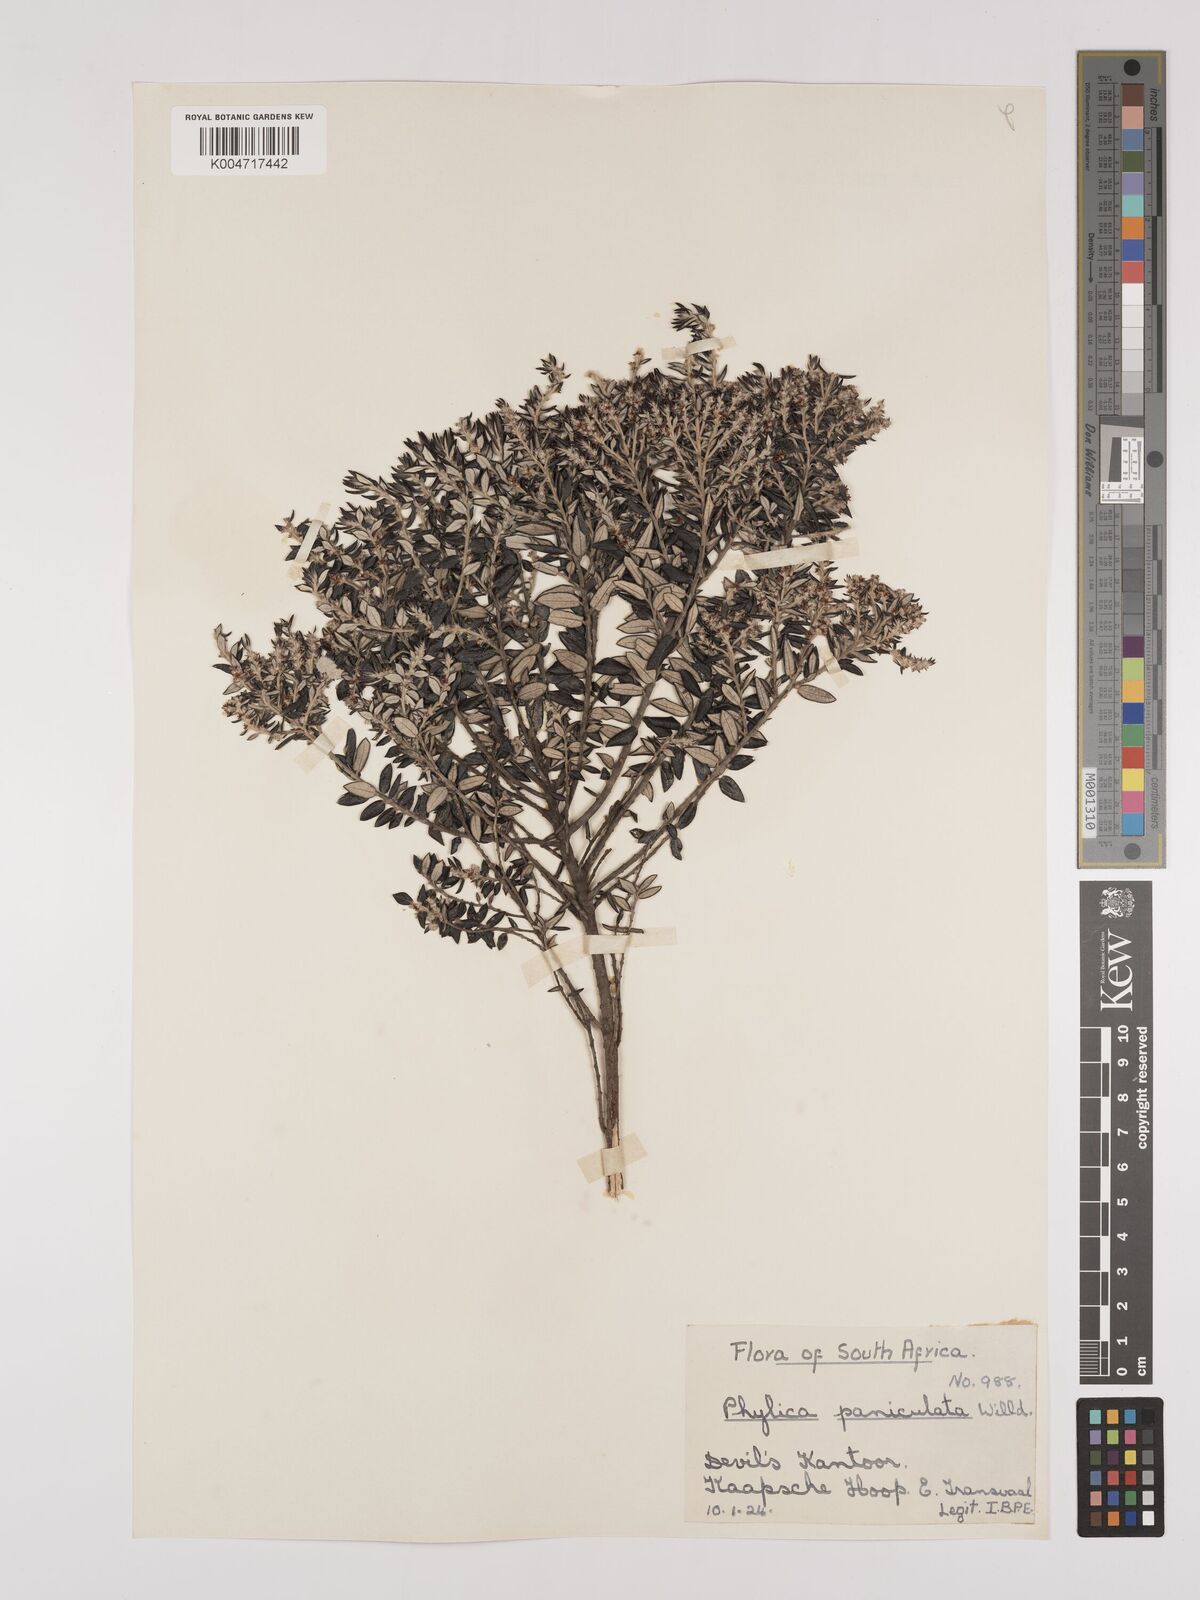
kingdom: Plantae
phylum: Tracheophyta
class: Magnoliopsida
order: Rosales
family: Rhamnaceae
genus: Phylica
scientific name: Phylica paniculata
